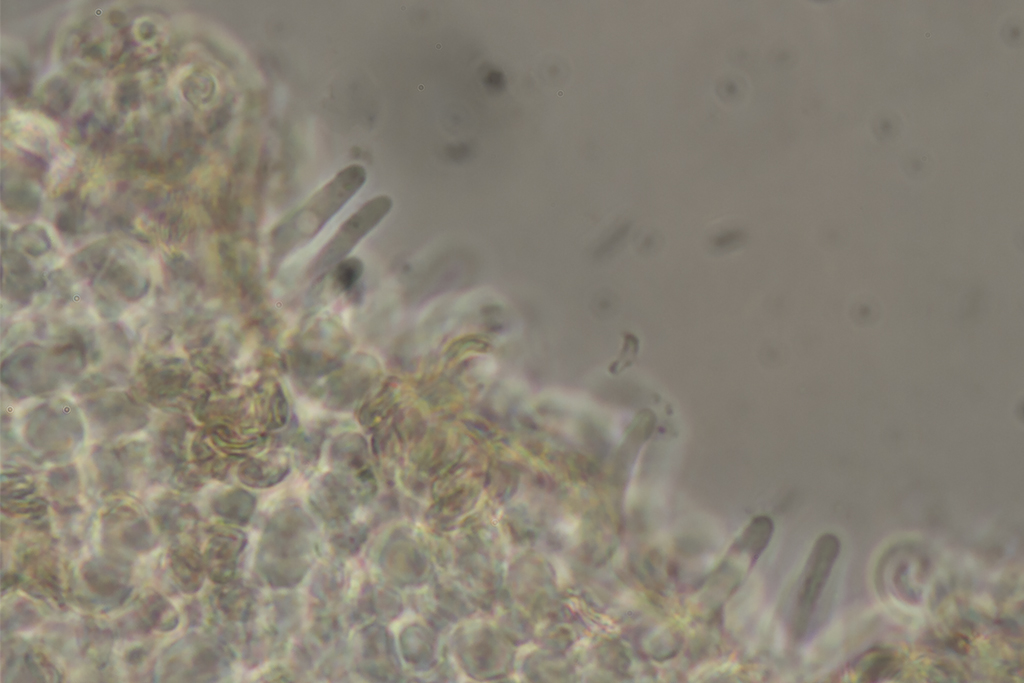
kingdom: Fungi
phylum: Basidiomycota
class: Agaricomycetes
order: Agaricales
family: Strophariaceae
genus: Deconica
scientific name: Deconica phillipsii
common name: almindelig stråhat
